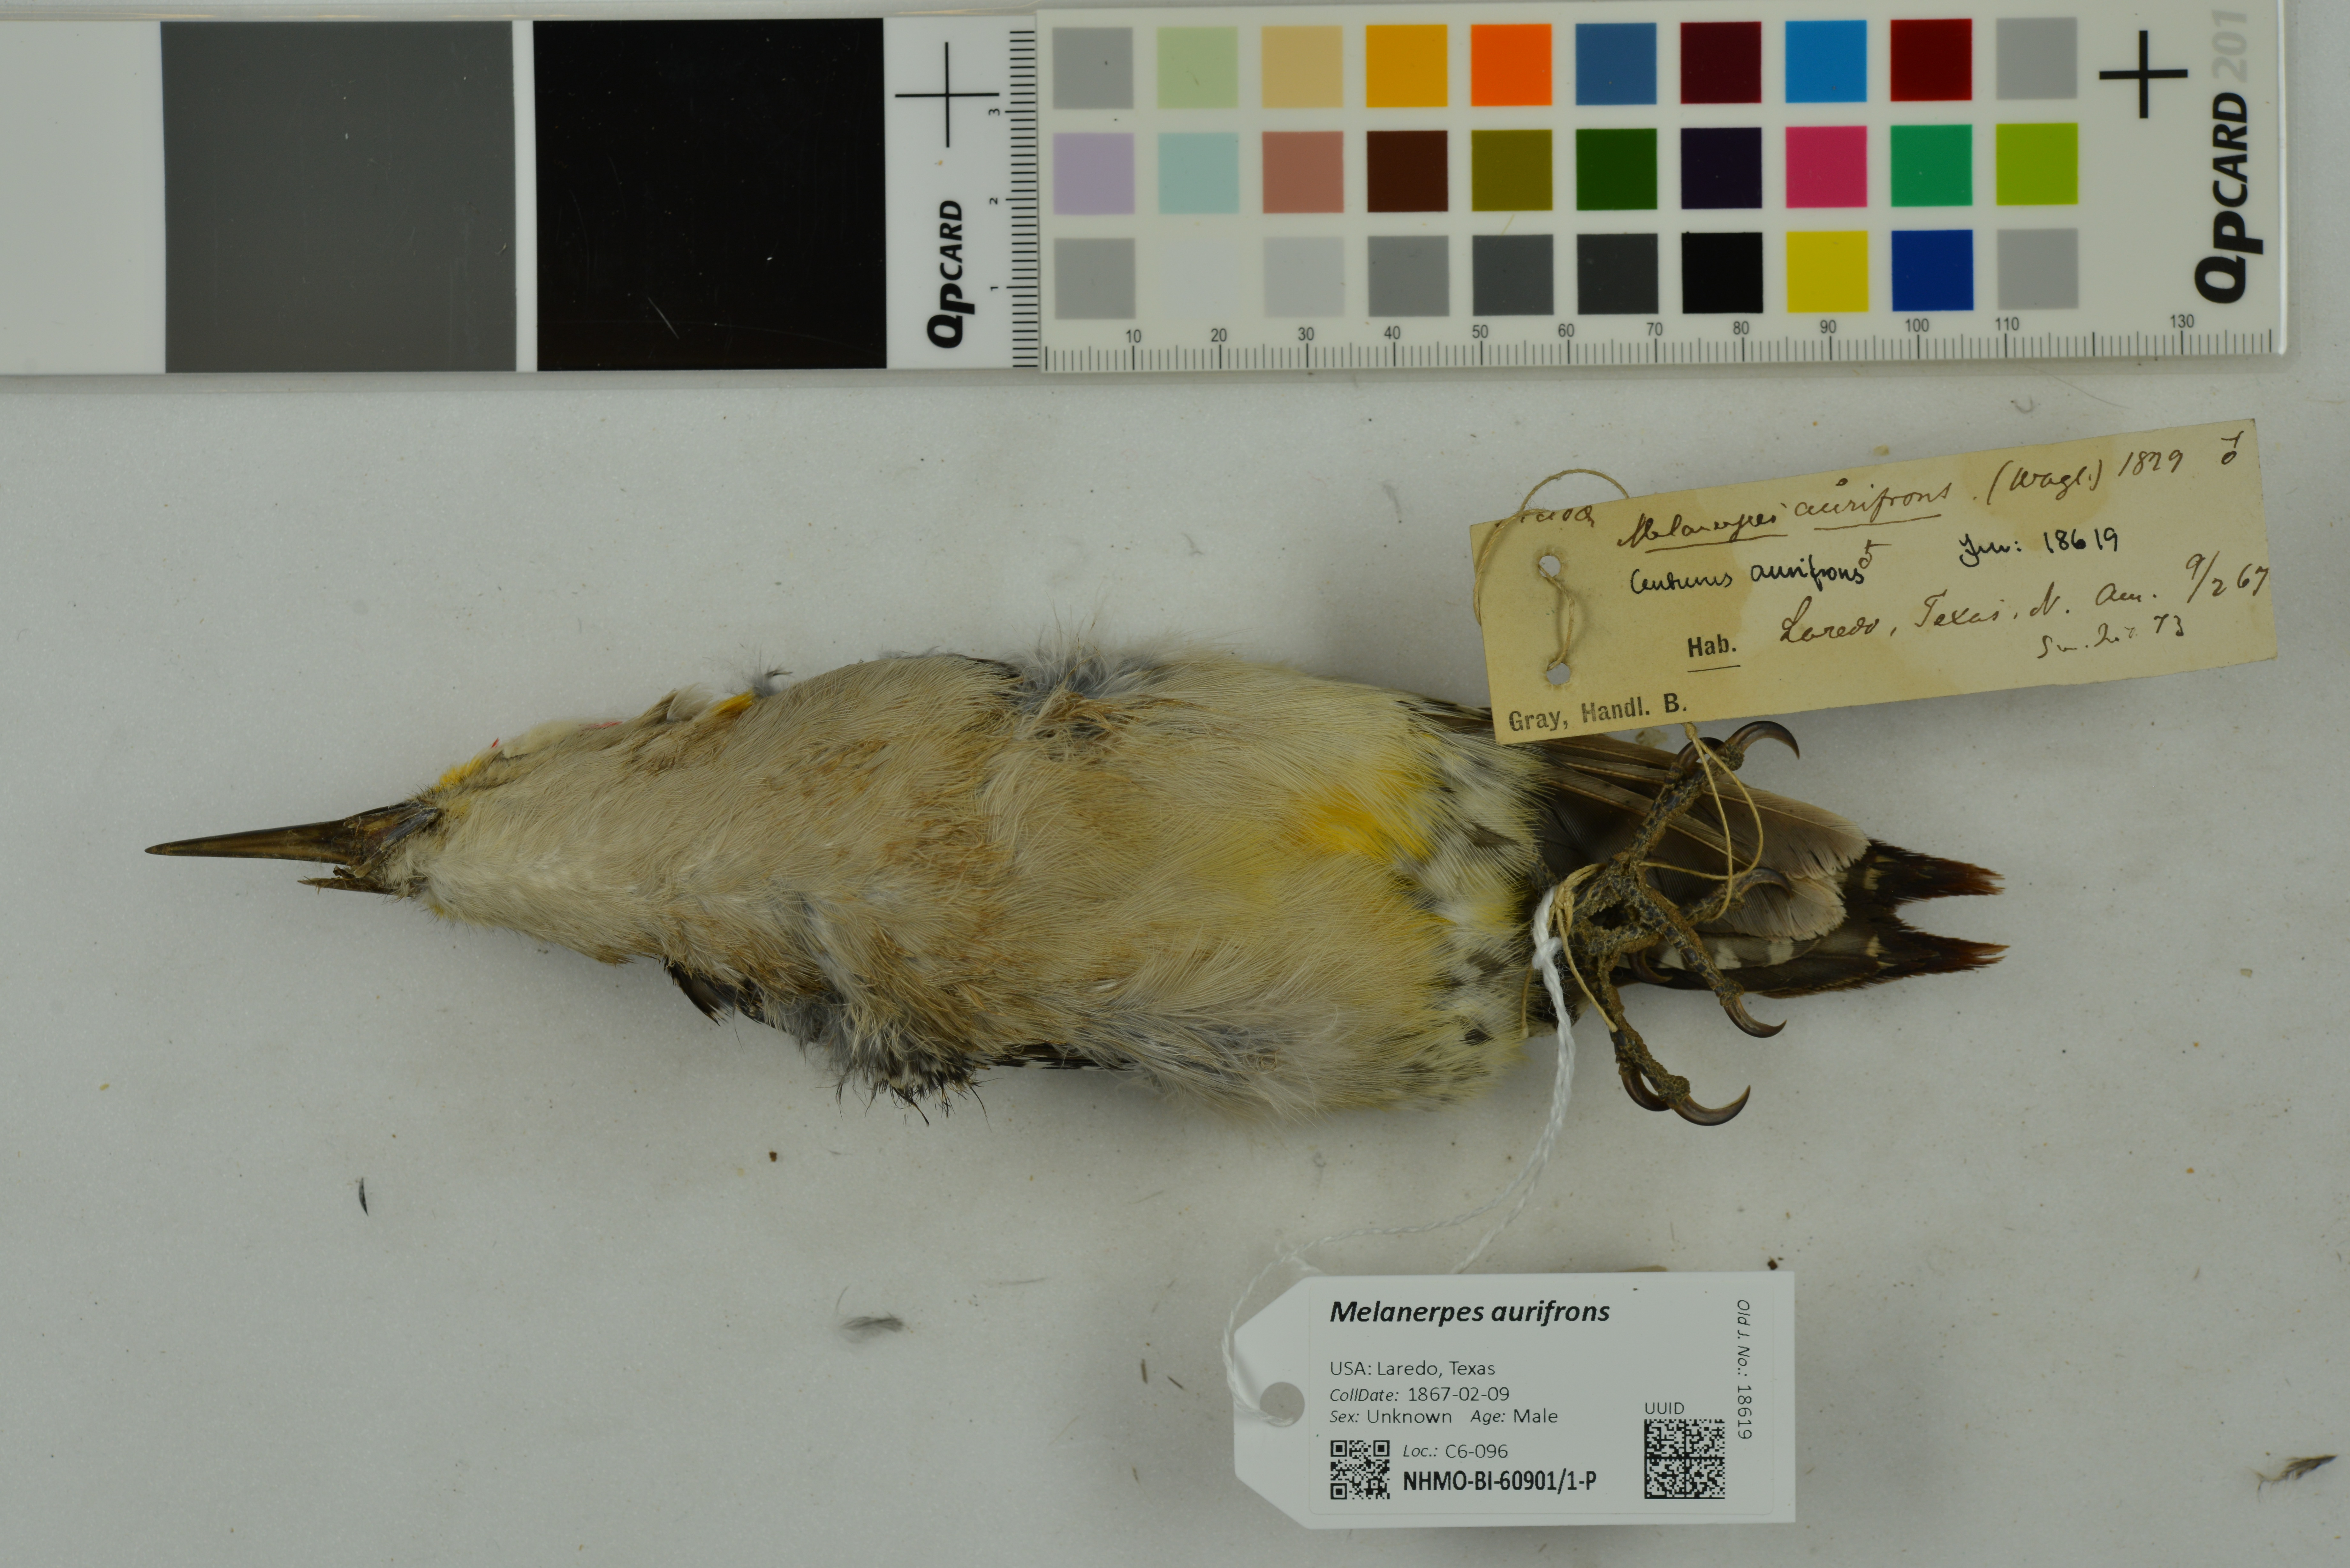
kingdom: Animalia
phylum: Chordata
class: Aves
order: Piciformes
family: Picidae
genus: Melanerpes
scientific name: Melanerpes aurifrons
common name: Golden-fronted woodpecker
